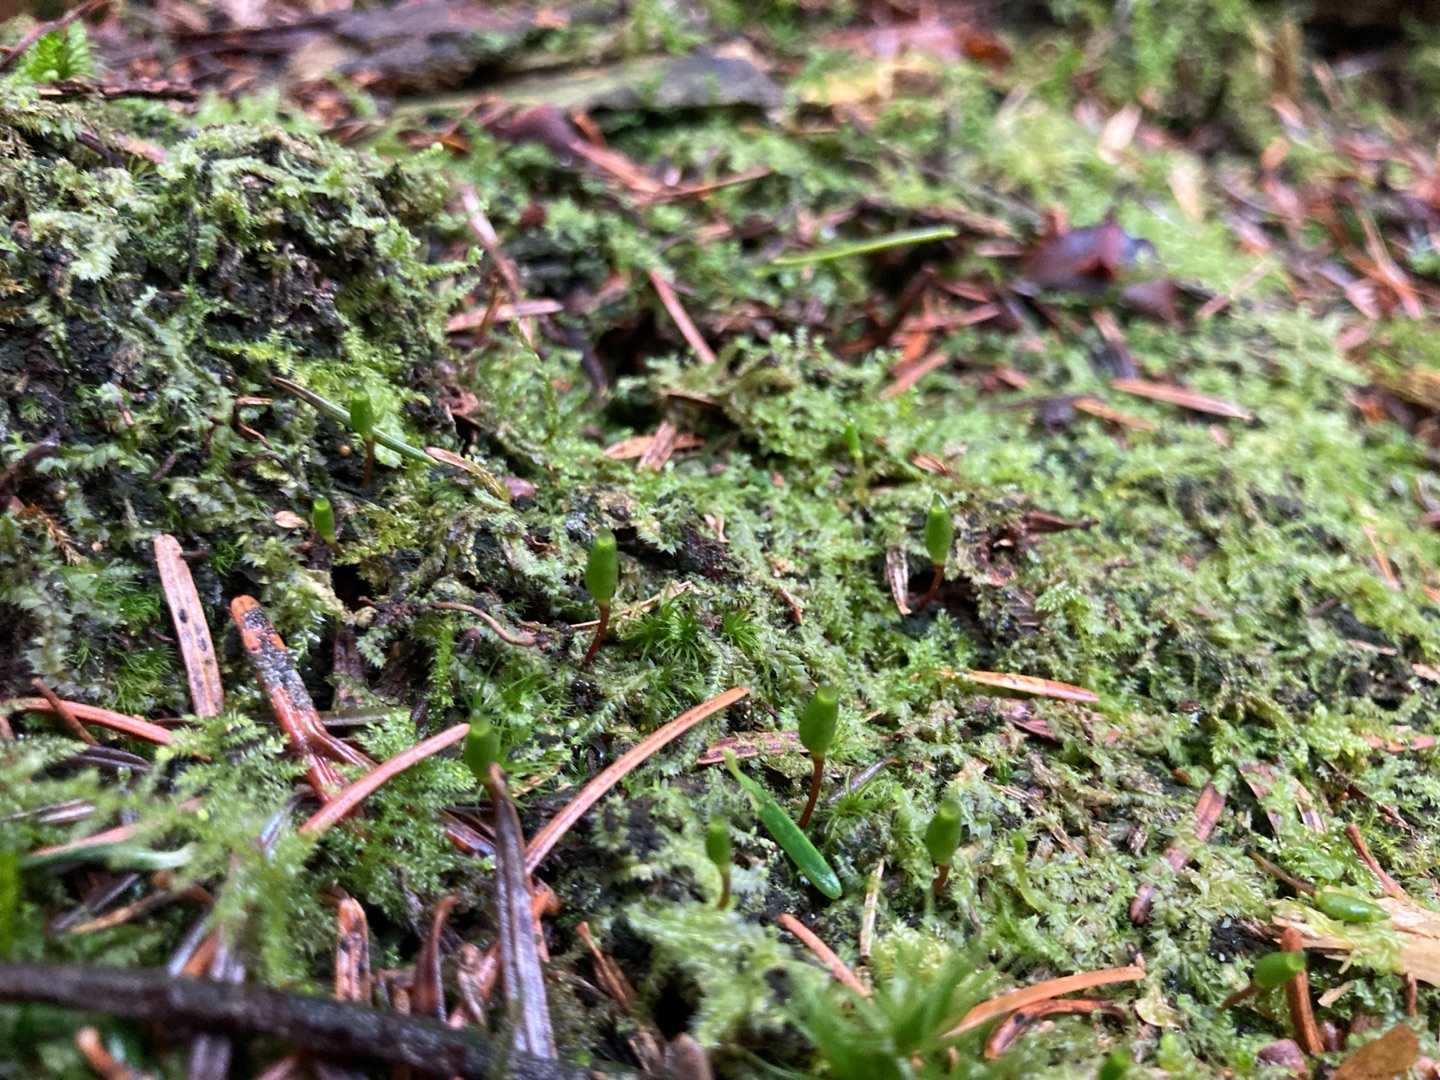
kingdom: Plantae
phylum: Bryophyta
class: Bryopsida
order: Buxbaumiales
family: Buxbaumiaceae
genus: Buxbaumia
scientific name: Buxbaumia viridis
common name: Grøn buxbaumia
